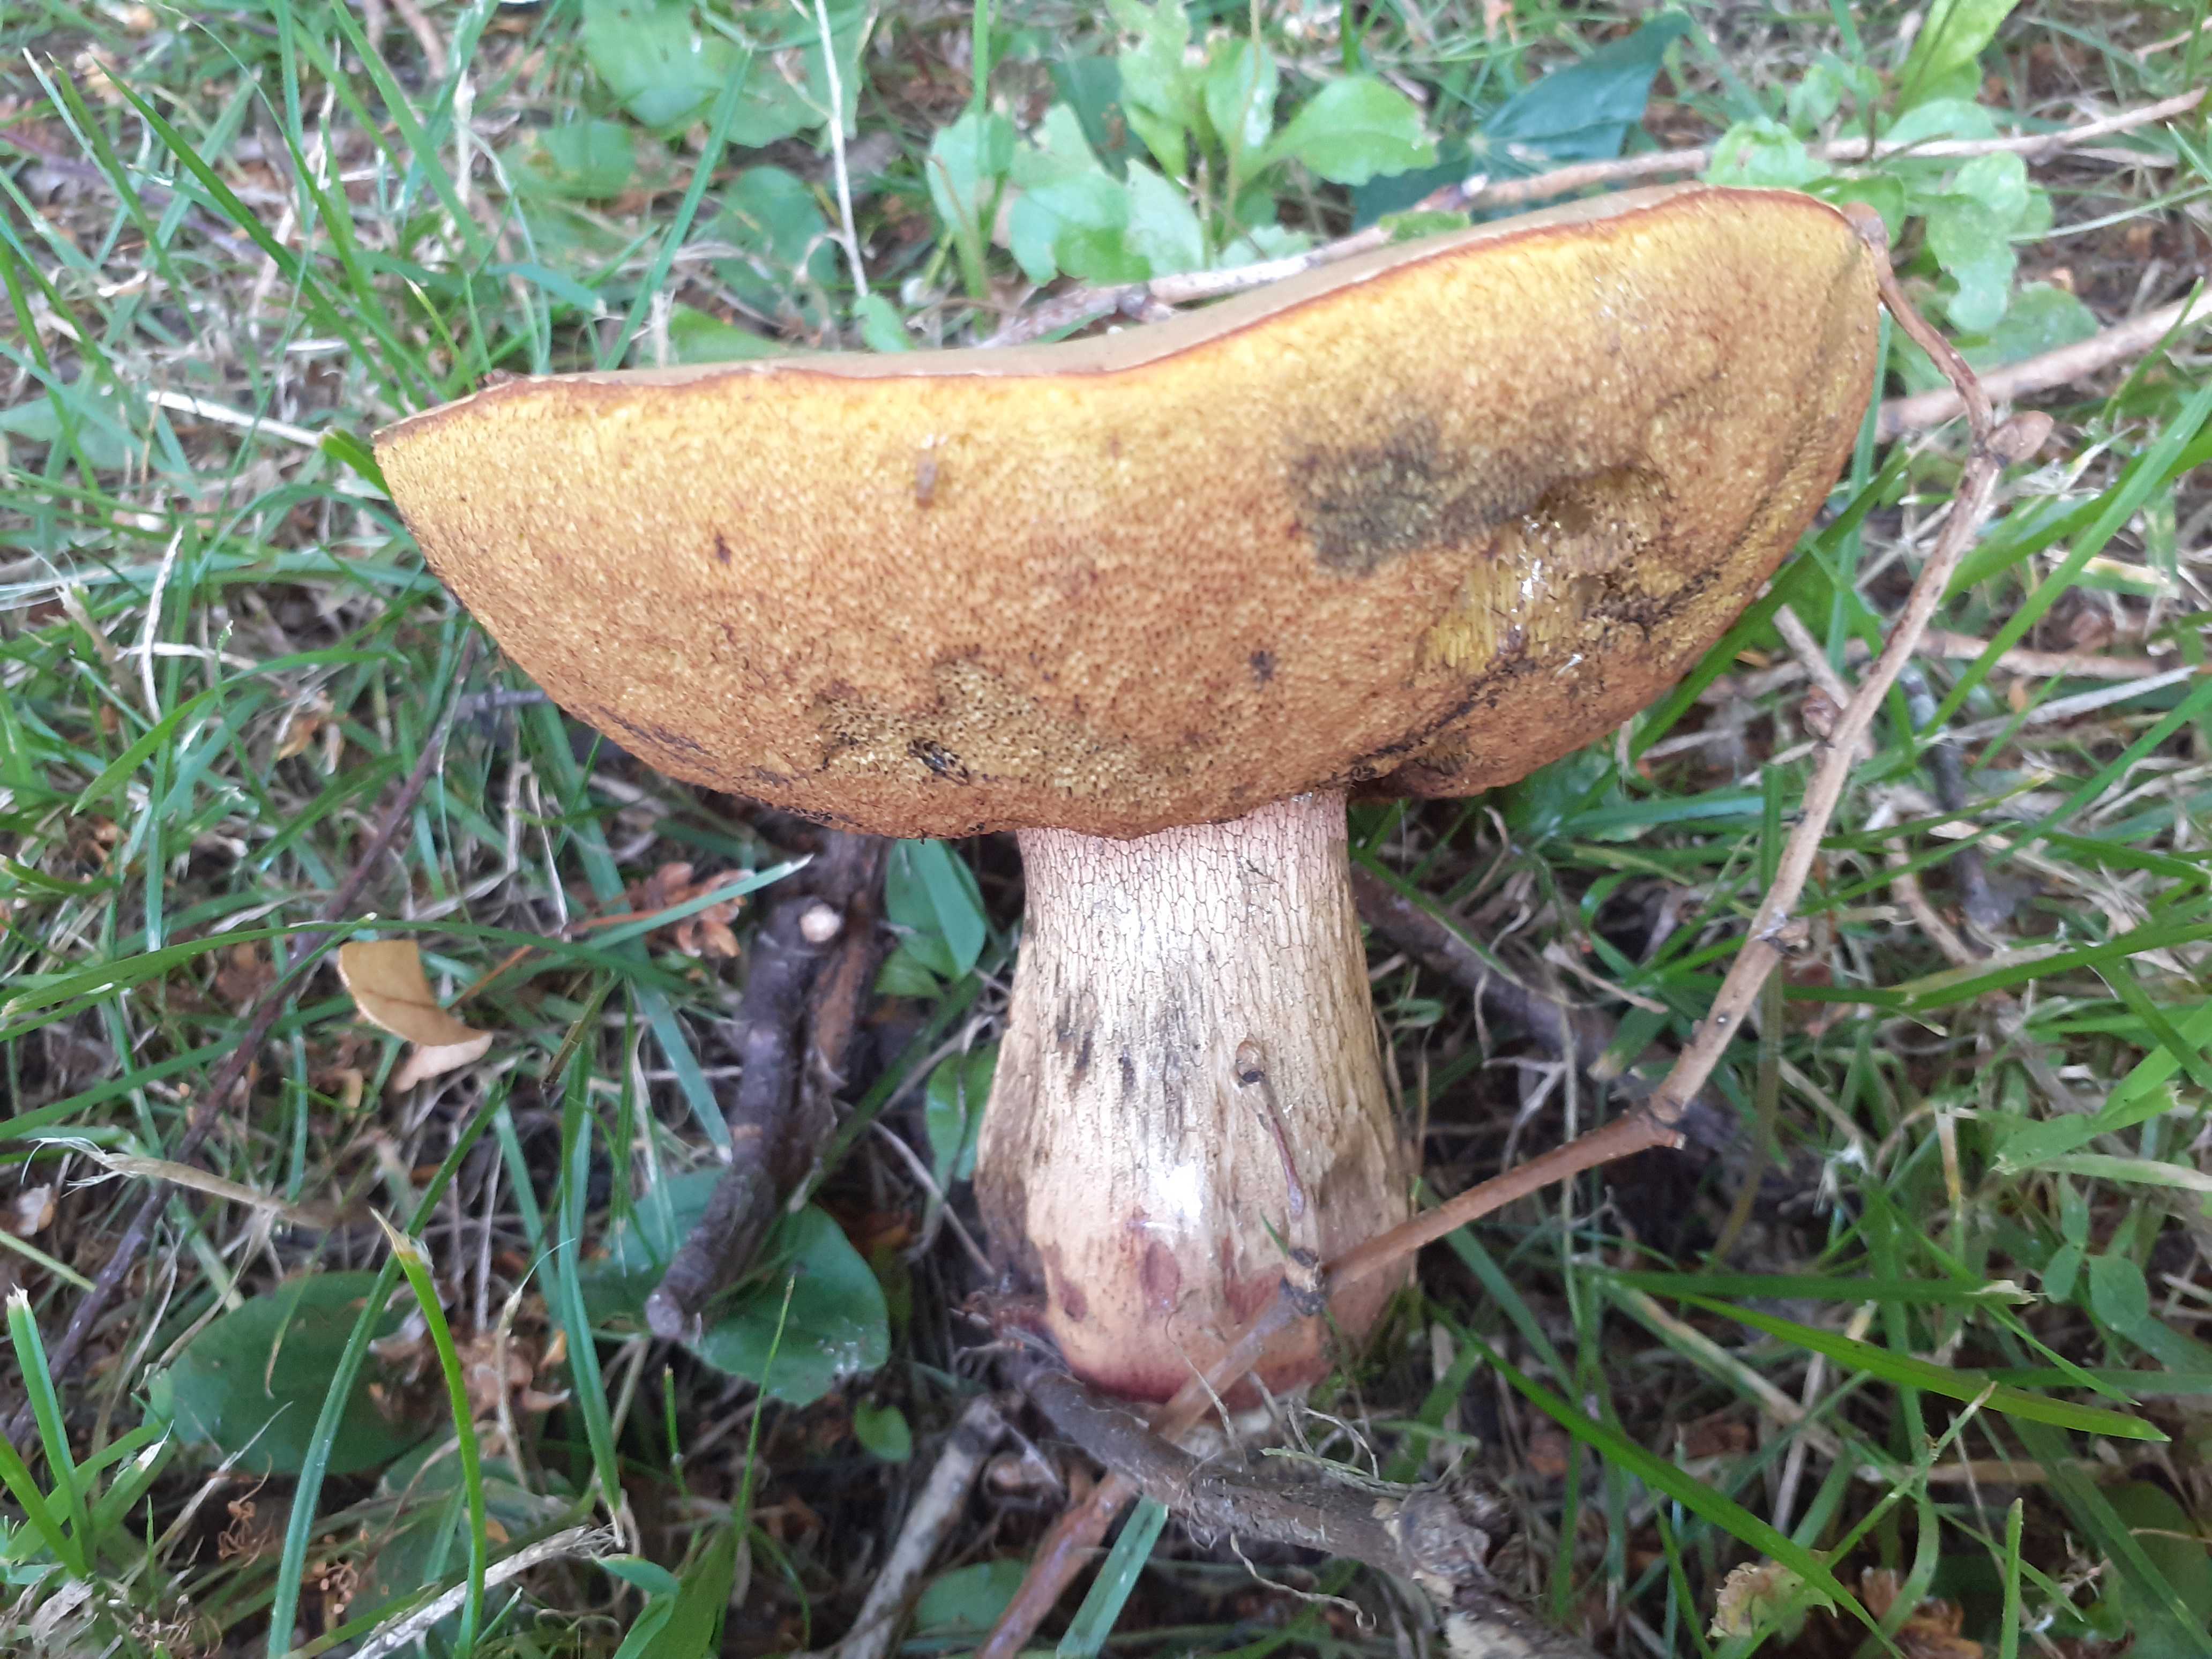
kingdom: Fungi
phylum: Basidiomycota
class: Agaricomycetes
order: Boletales
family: Boletaceae
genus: Suillellus
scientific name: Suillellus luridus
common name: netstokket indigorørhat
